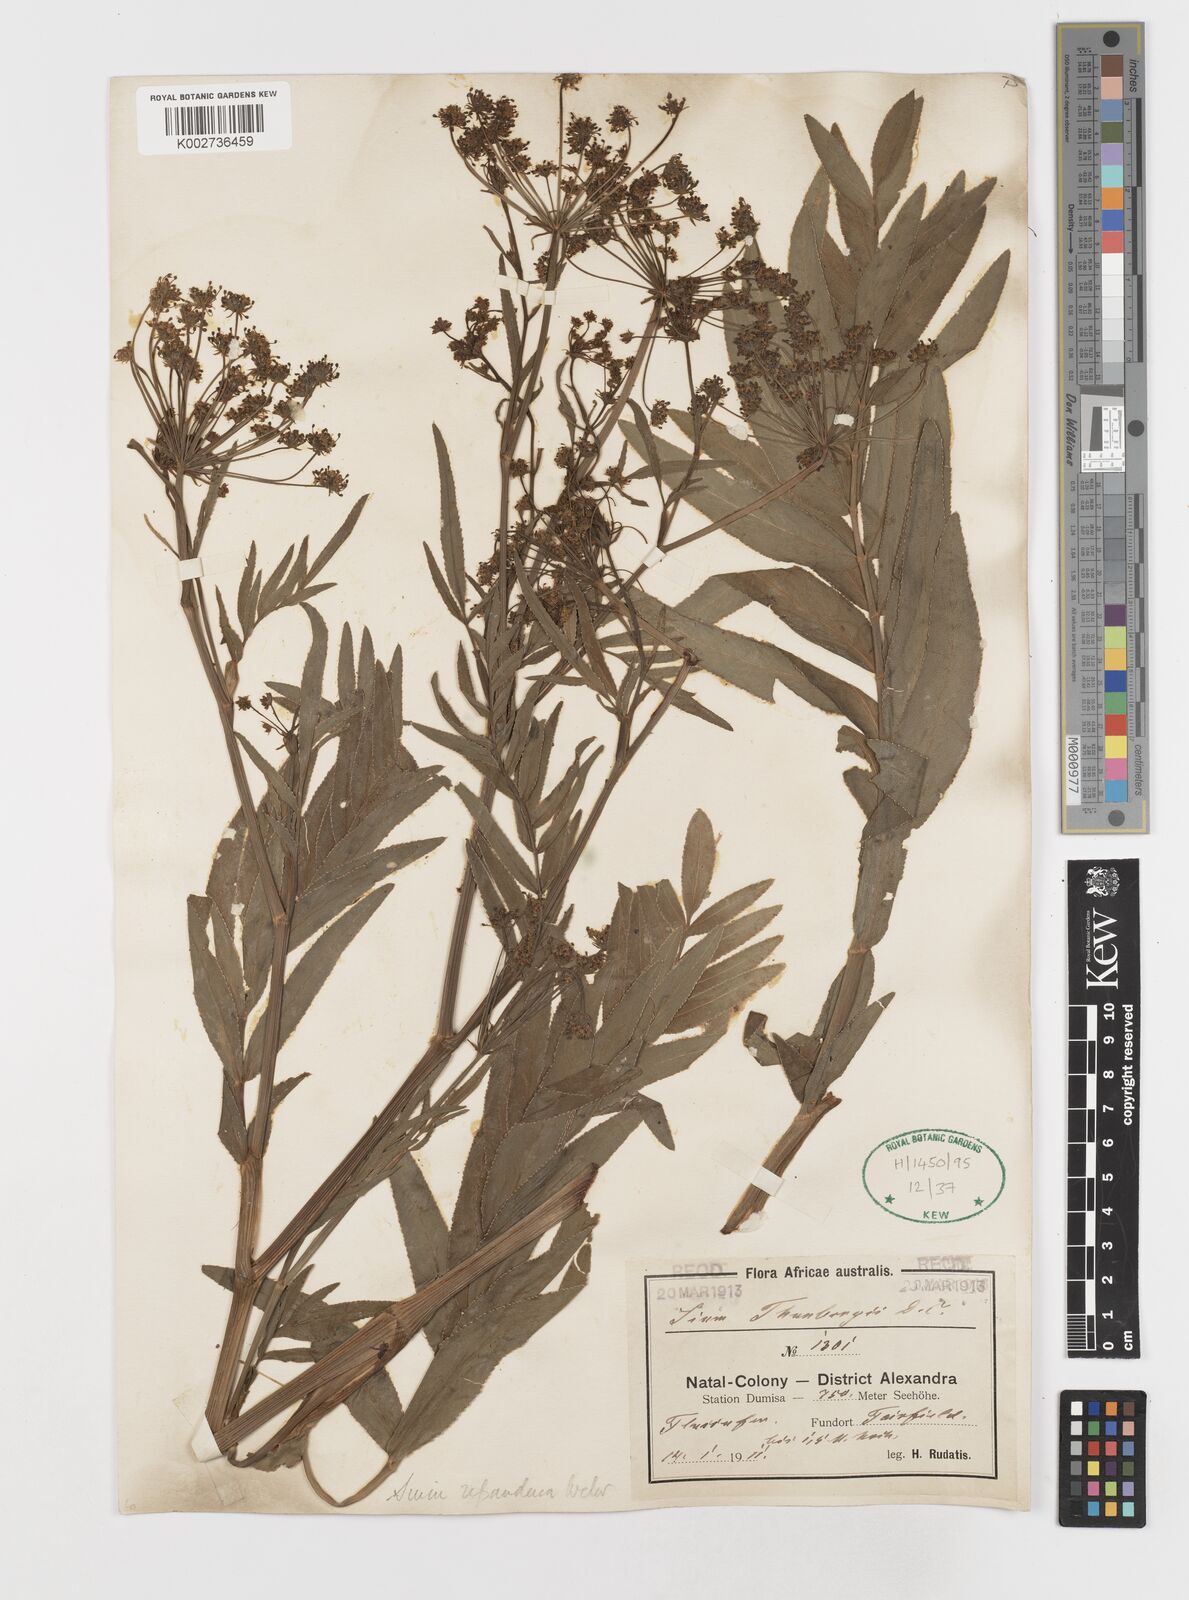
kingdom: Plantae
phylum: Tracheophyta
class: Magnoliopsida
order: Apiales
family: Apiaceae
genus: Berula
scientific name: Berula repanda
